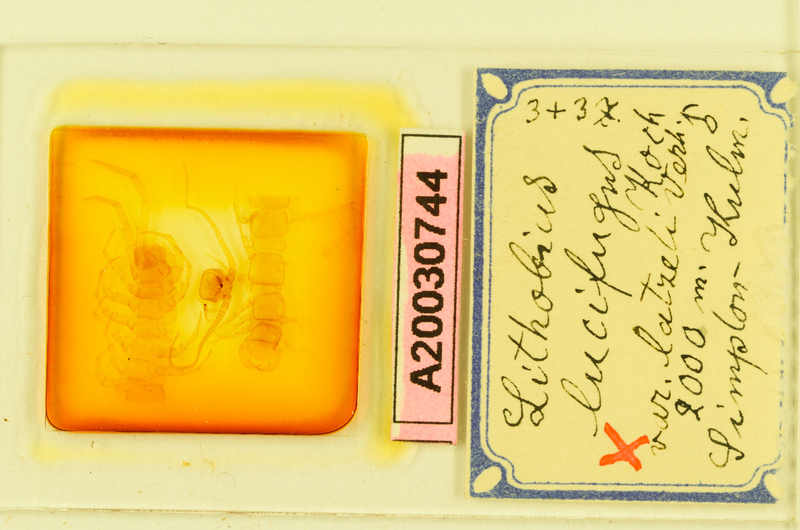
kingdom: Animalia
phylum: Arthropoda
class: Chilopoda
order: Lithobiomorpha
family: Lithobiidae
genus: Lithobius
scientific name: Lithobius lucifugus
